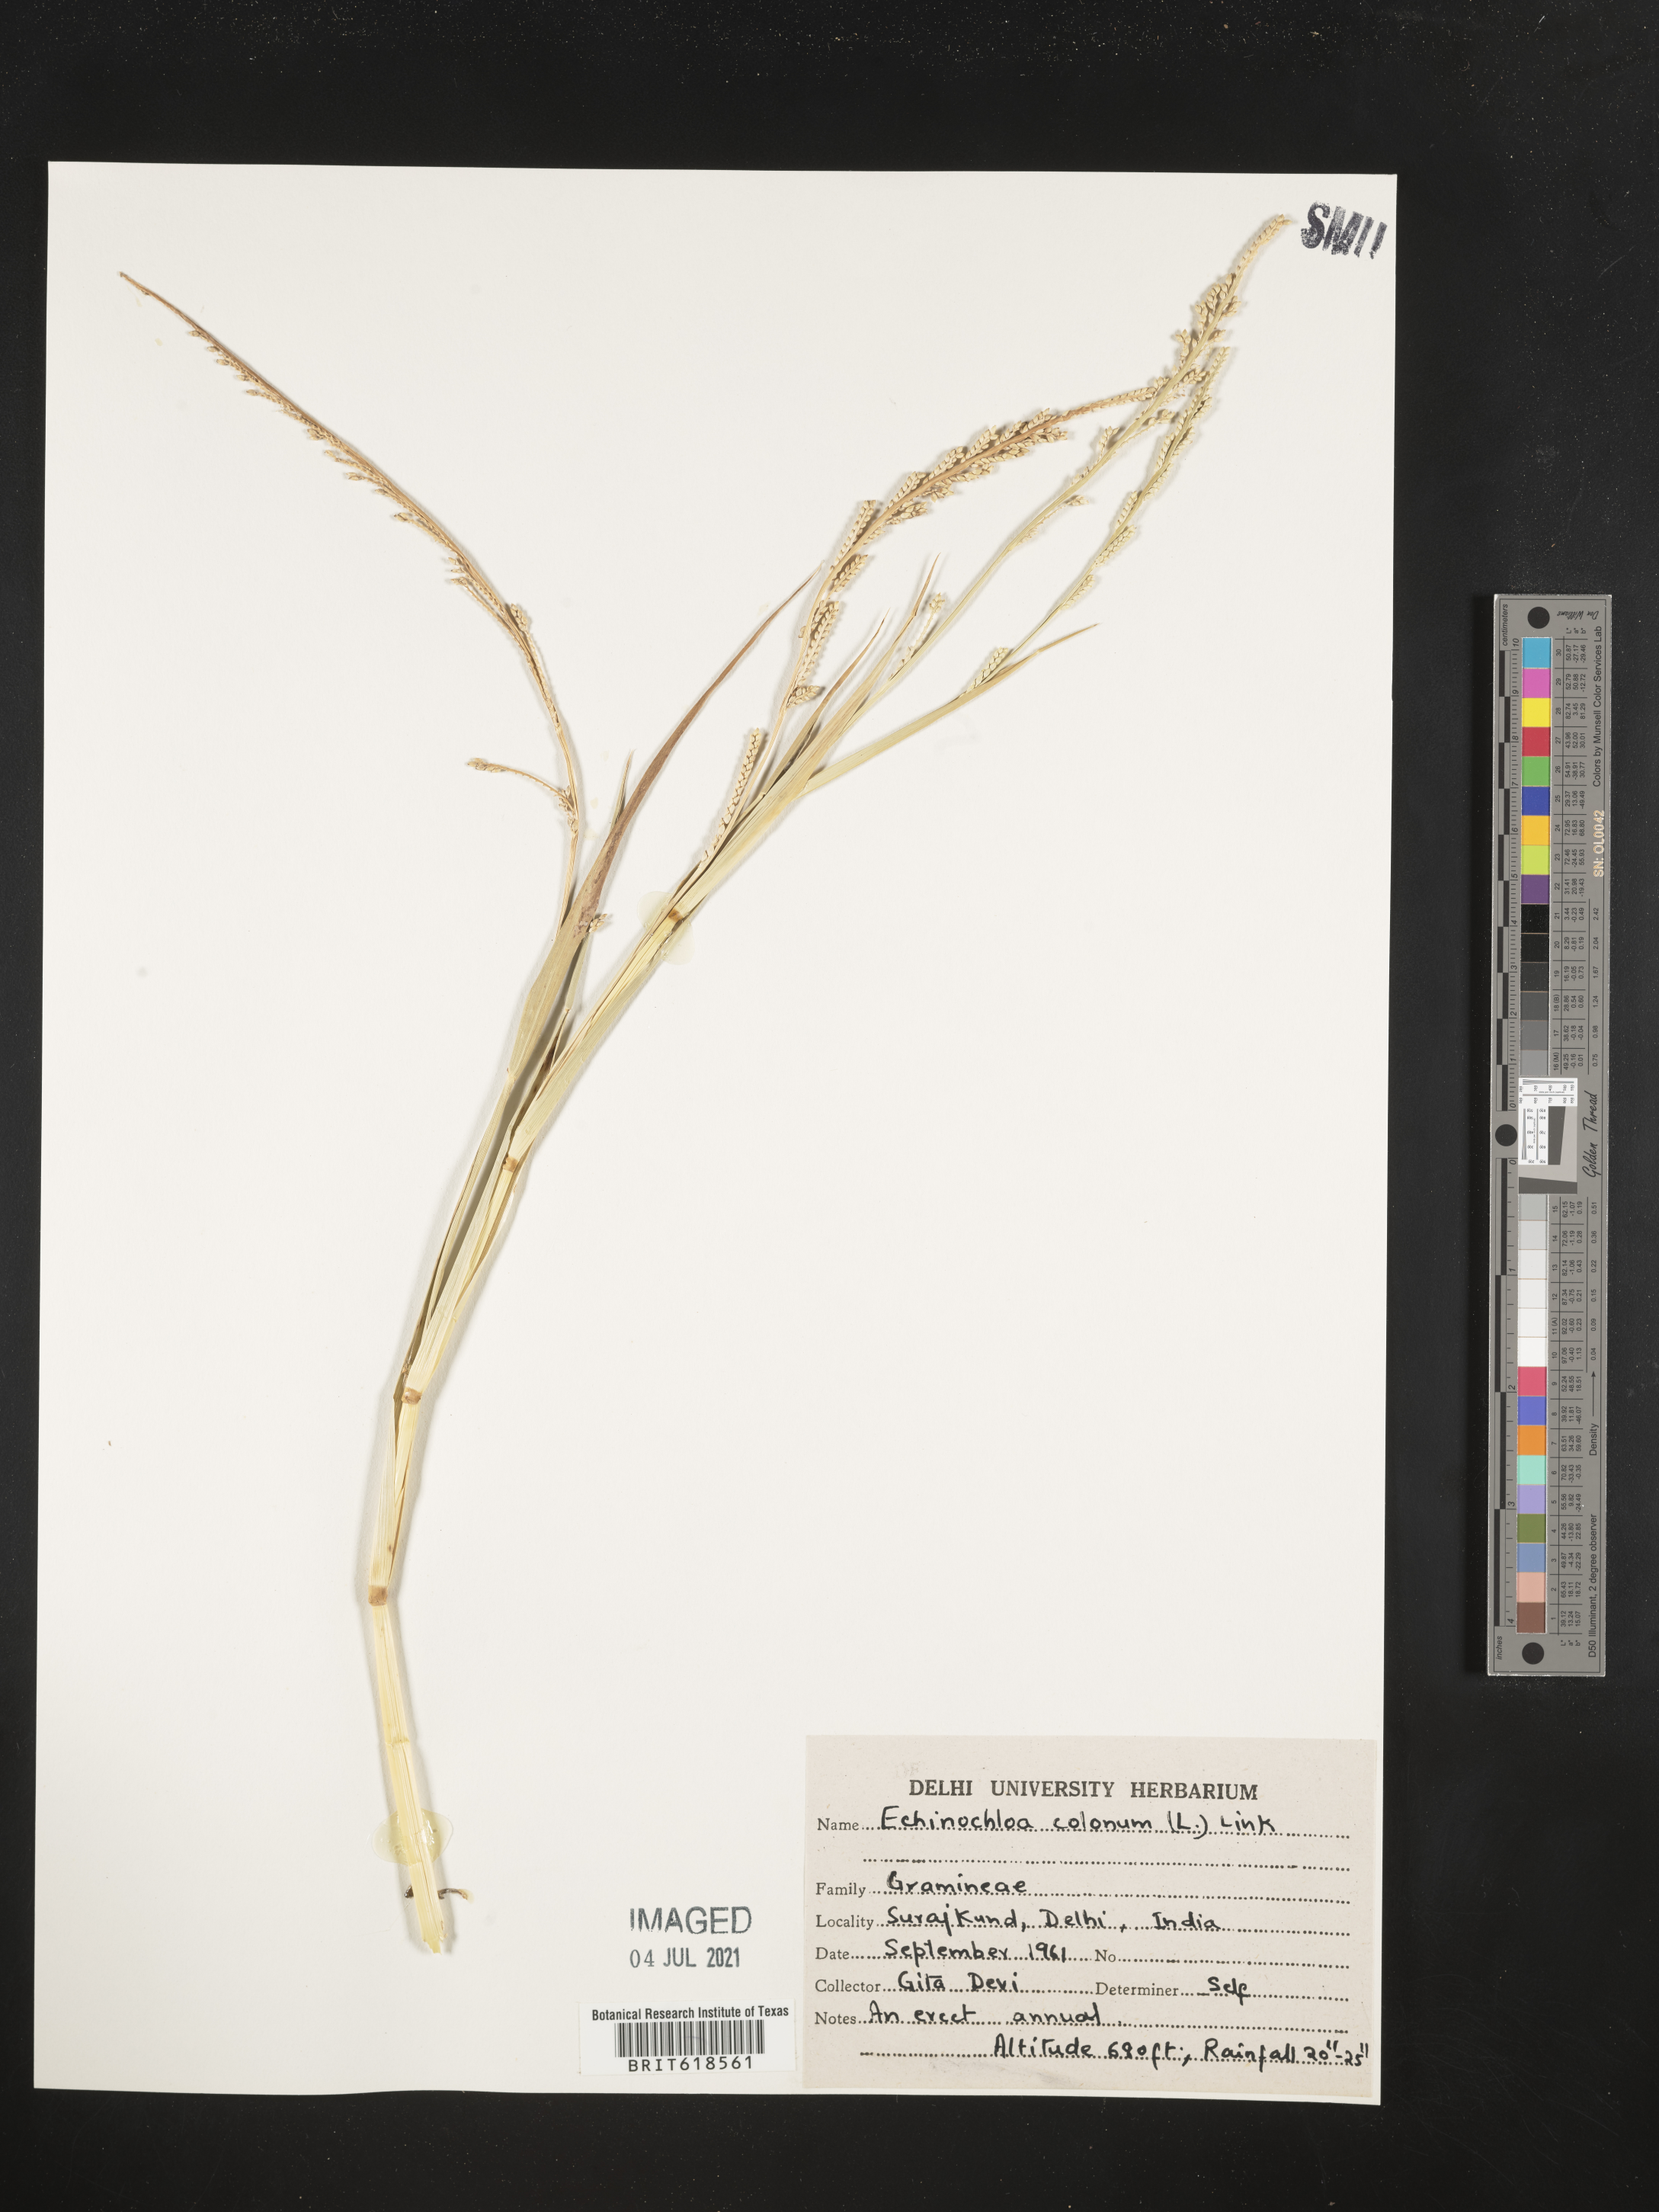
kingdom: Plantae
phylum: Tracheophyta
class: Liliopsida
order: Poales
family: Poaceae
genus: Echinochloa
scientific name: Echinochloa colonum
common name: Jungle rice
